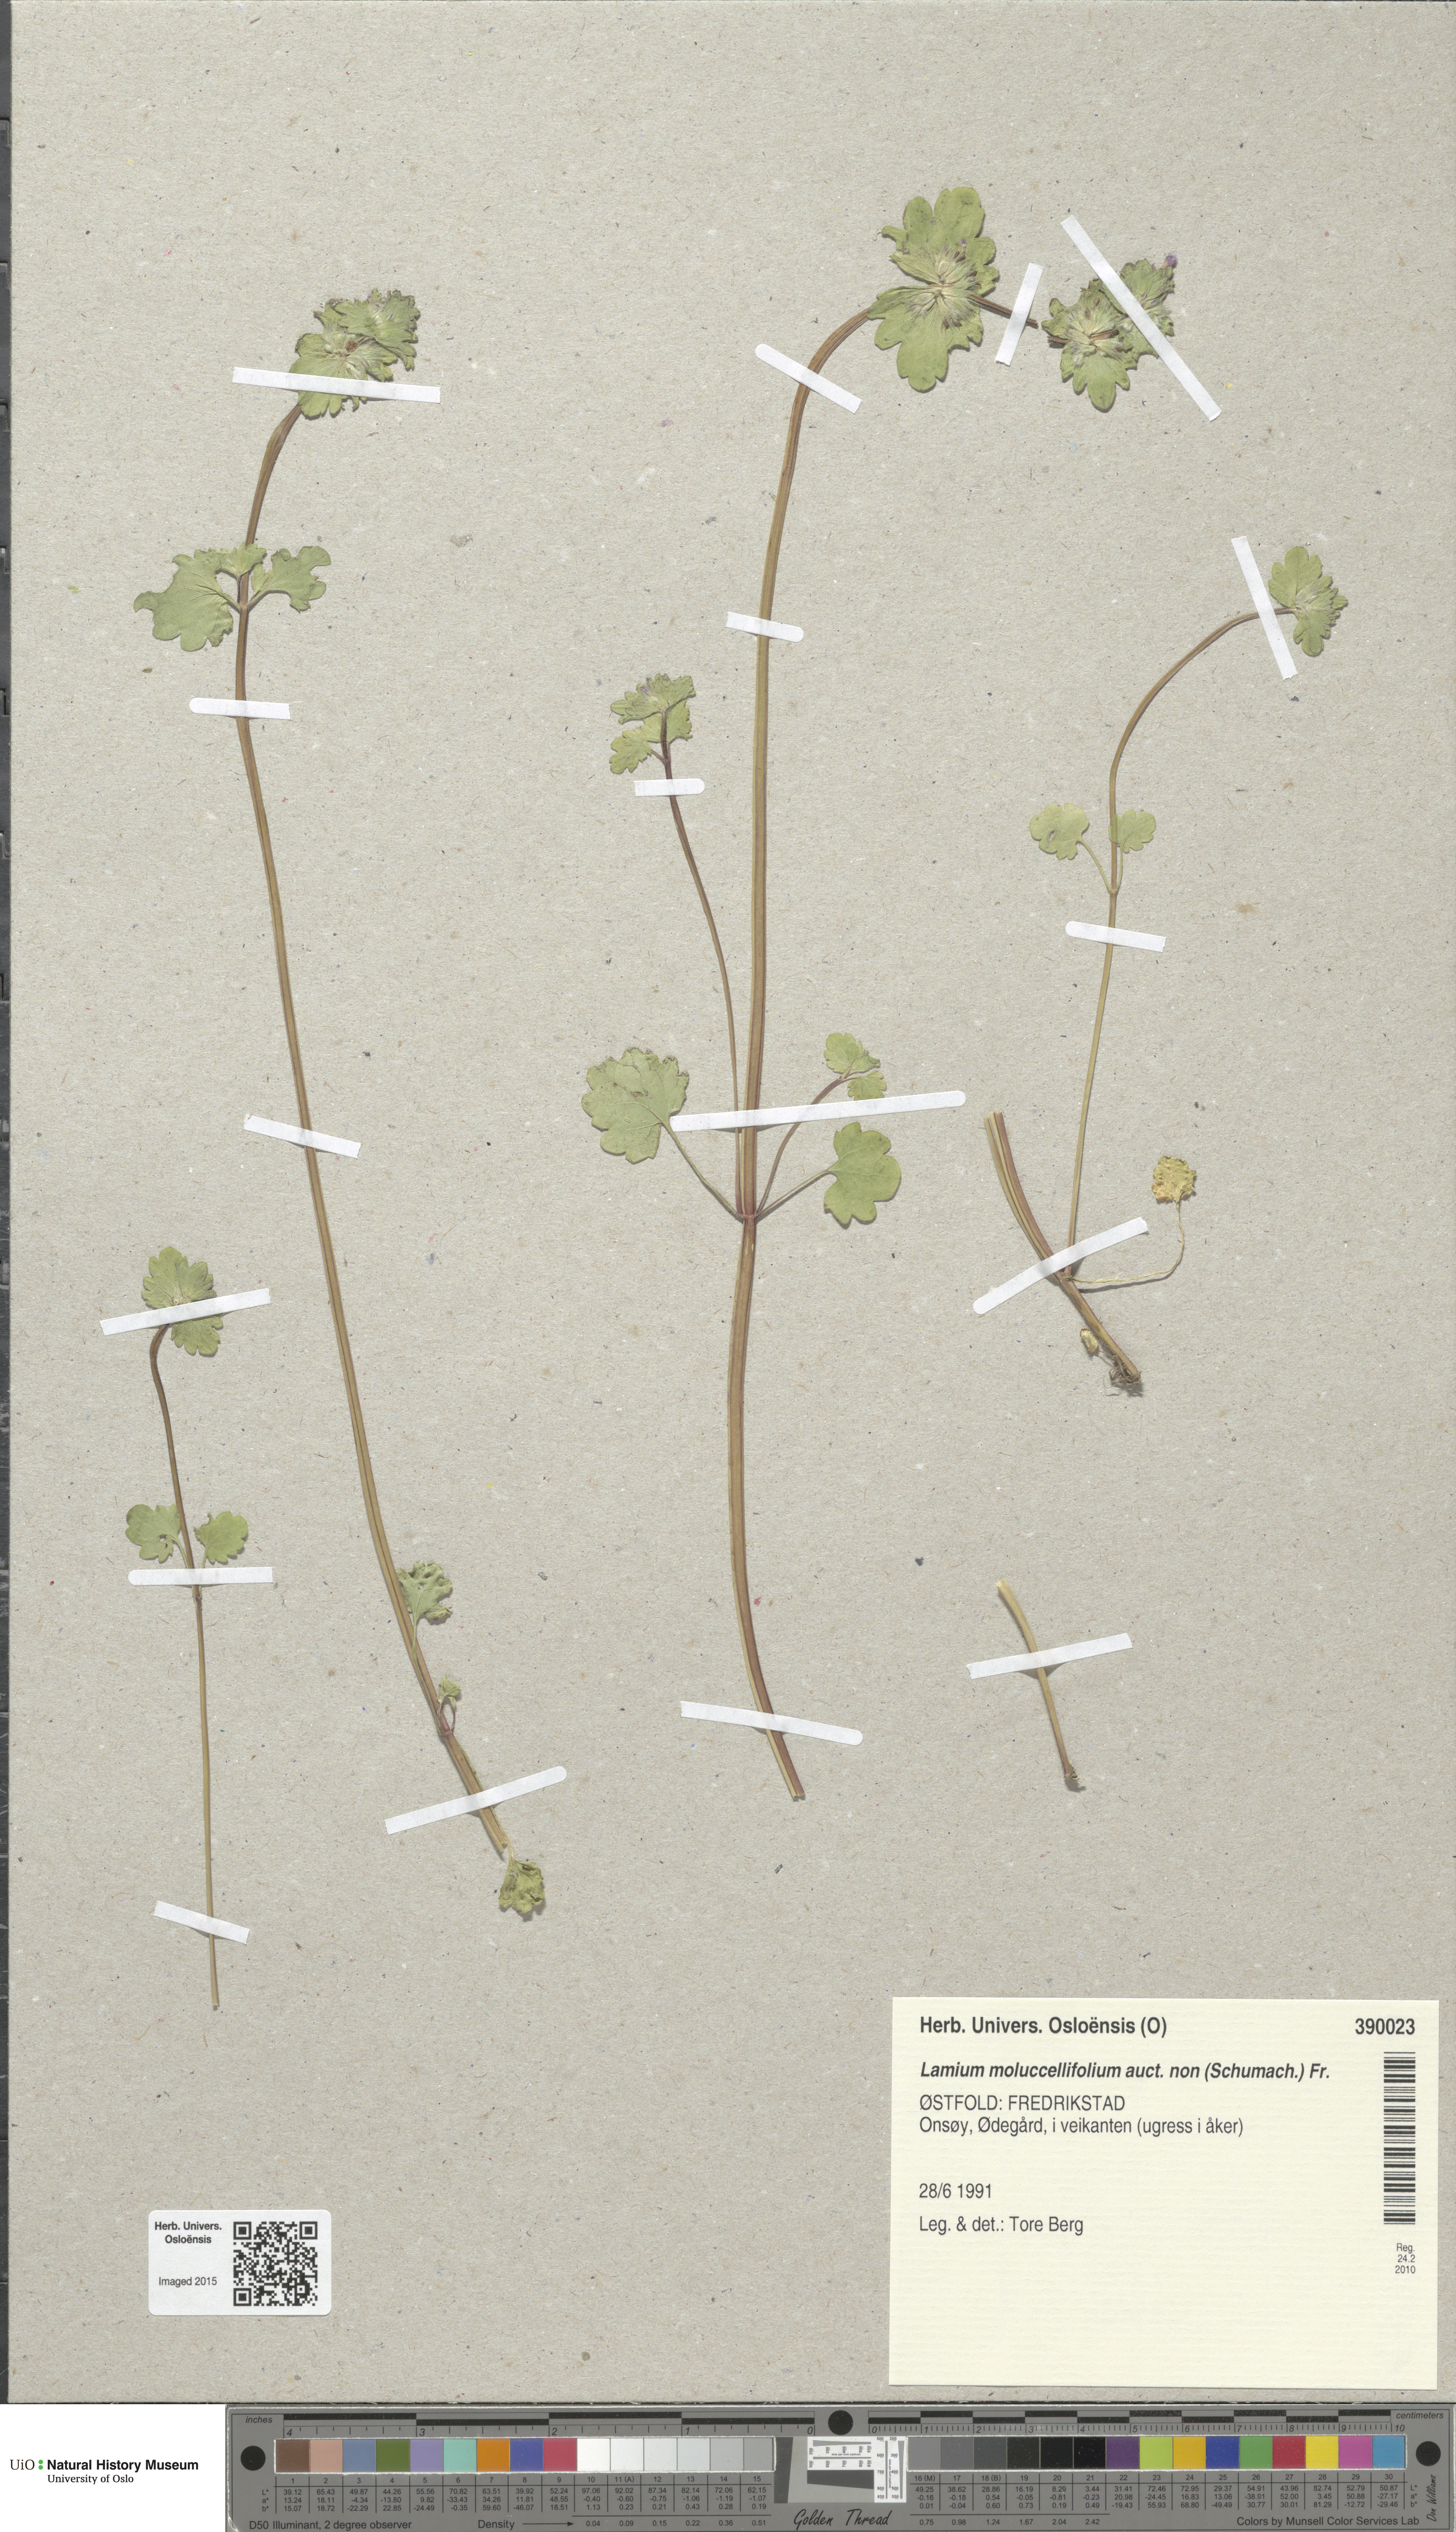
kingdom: Plantae
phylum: Tracheophyta
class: Magnoliopsida
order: Lamiales
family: Lamiaceae
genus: Lamium
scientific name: Lamium confertum
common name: Northern dead-nettle
